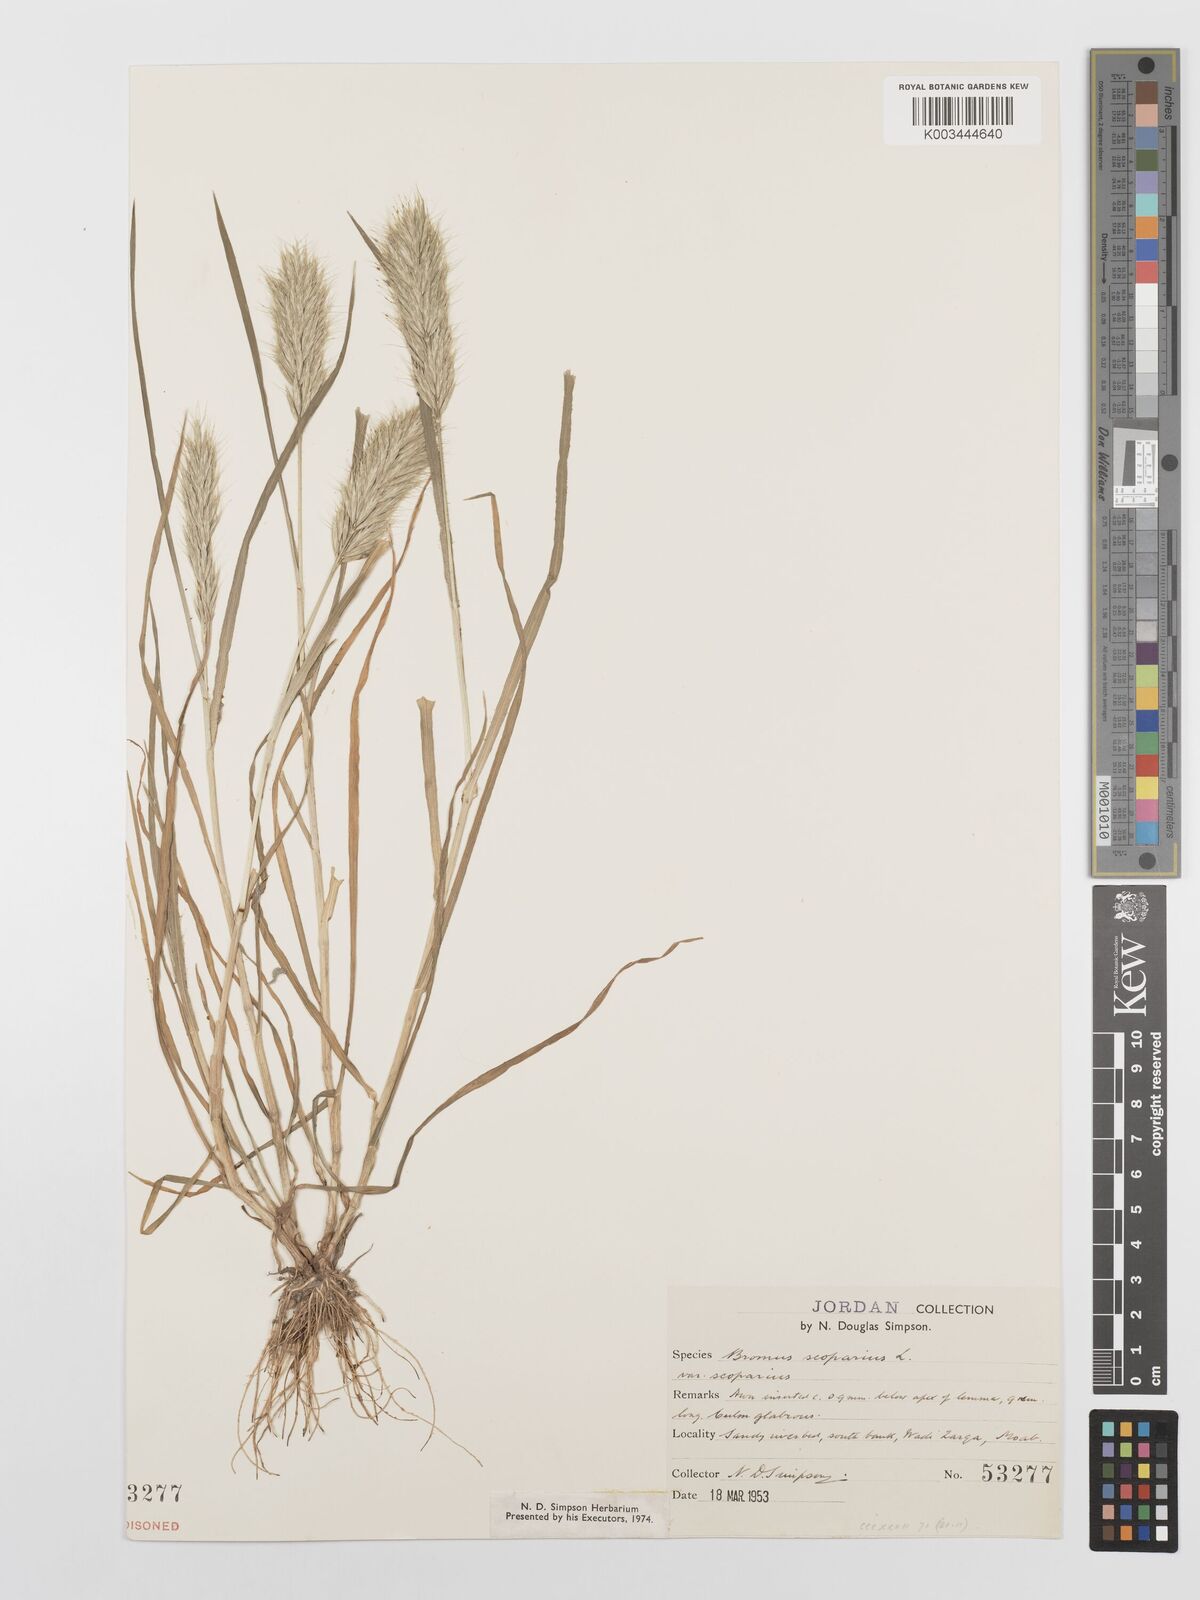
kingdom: Plantae
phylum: Tracheophyta
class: Liliopsida
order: Poales
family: Poaceae
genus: Bromus
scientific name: Bromus scoparius
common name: Broom brome
